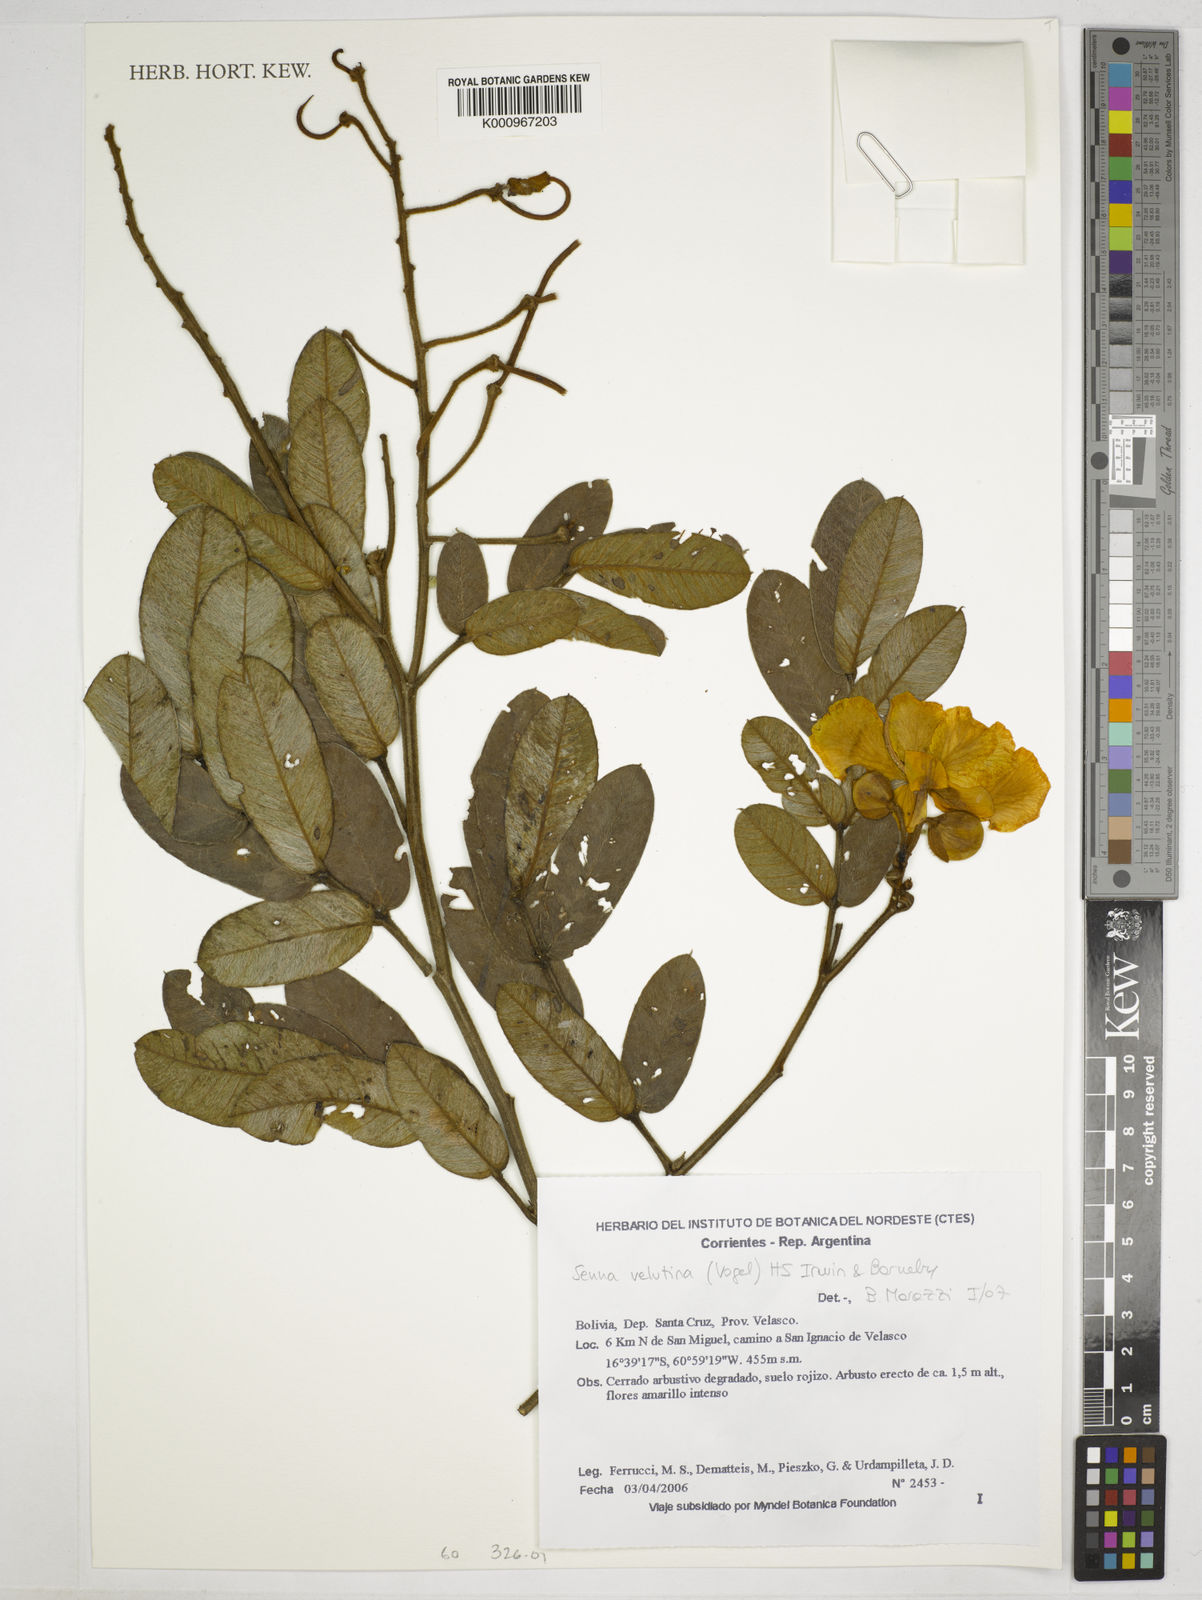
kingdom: Plantae
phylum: Tracheophyta
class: Magnoliopsida
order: Fabales
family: Fabaceae
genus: Senna
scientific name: Senna velutina
